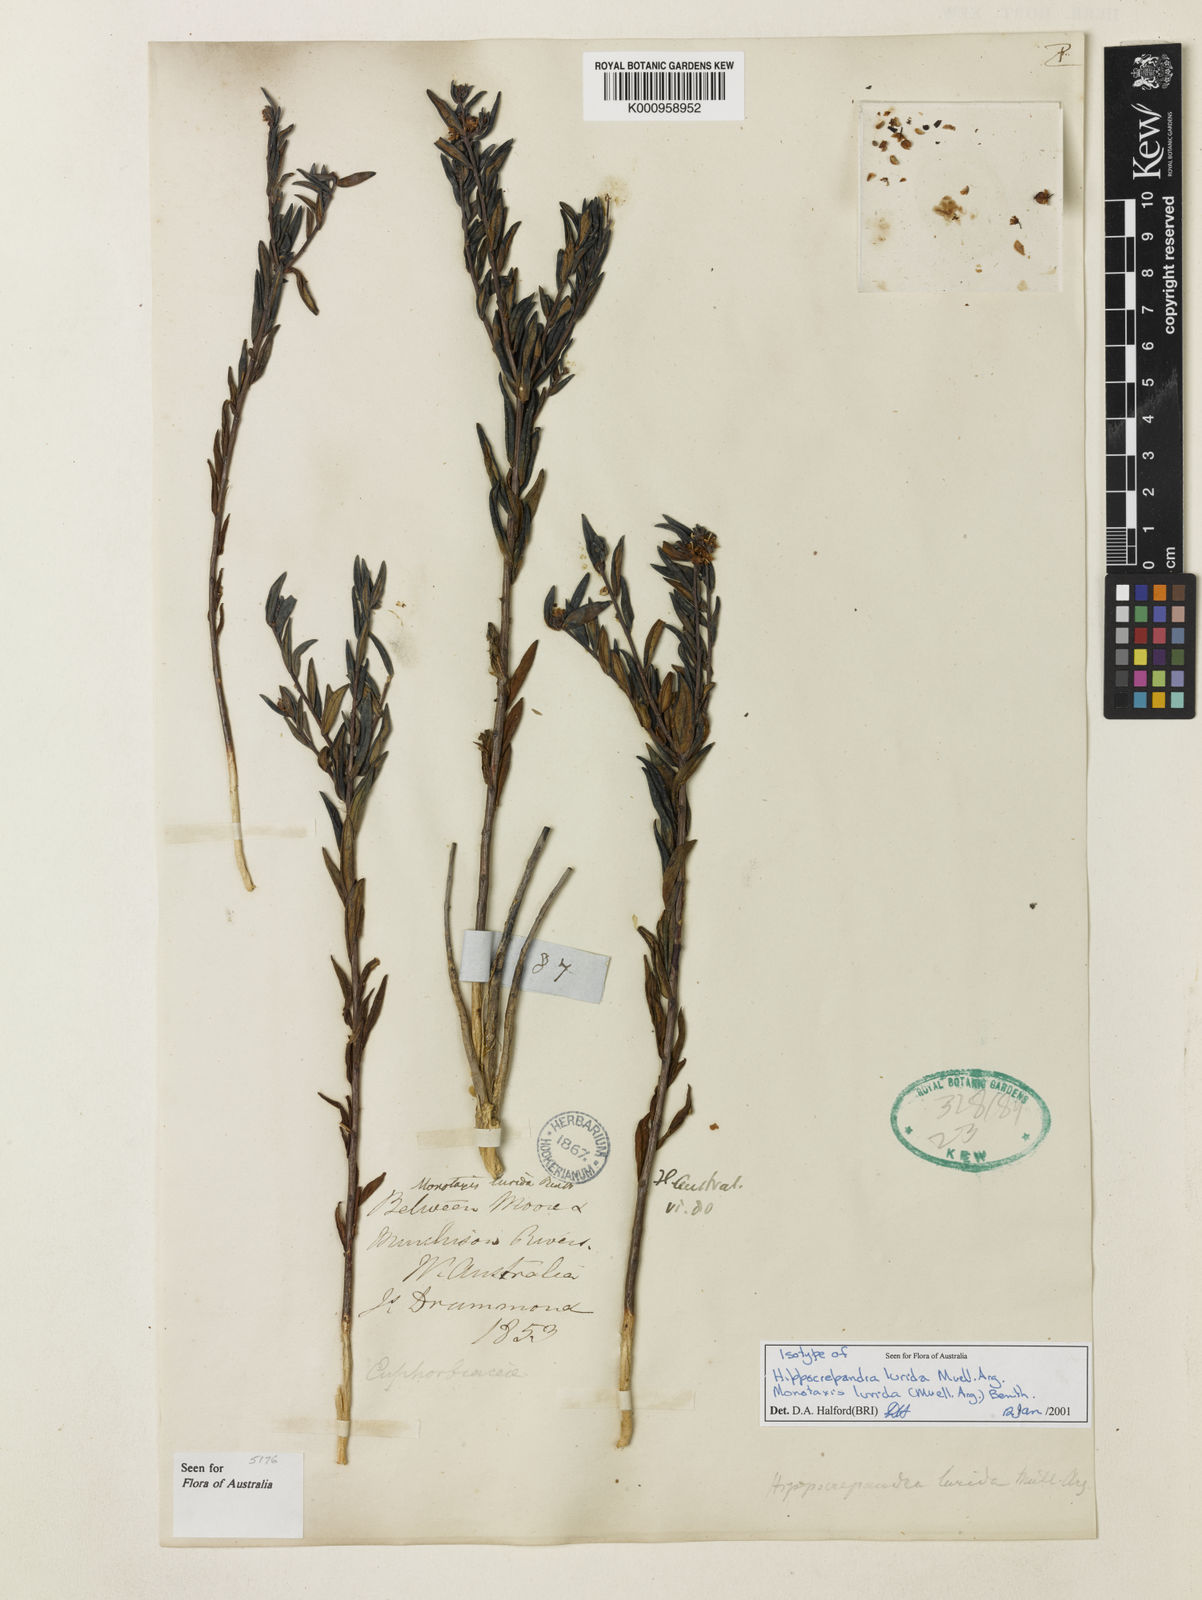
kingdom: Plantae
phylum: Tracheophyta
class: Magnoliopsida
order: Malpighiales
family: Euphorbiaceae
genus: Monotaxis
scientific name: Monotaxis
